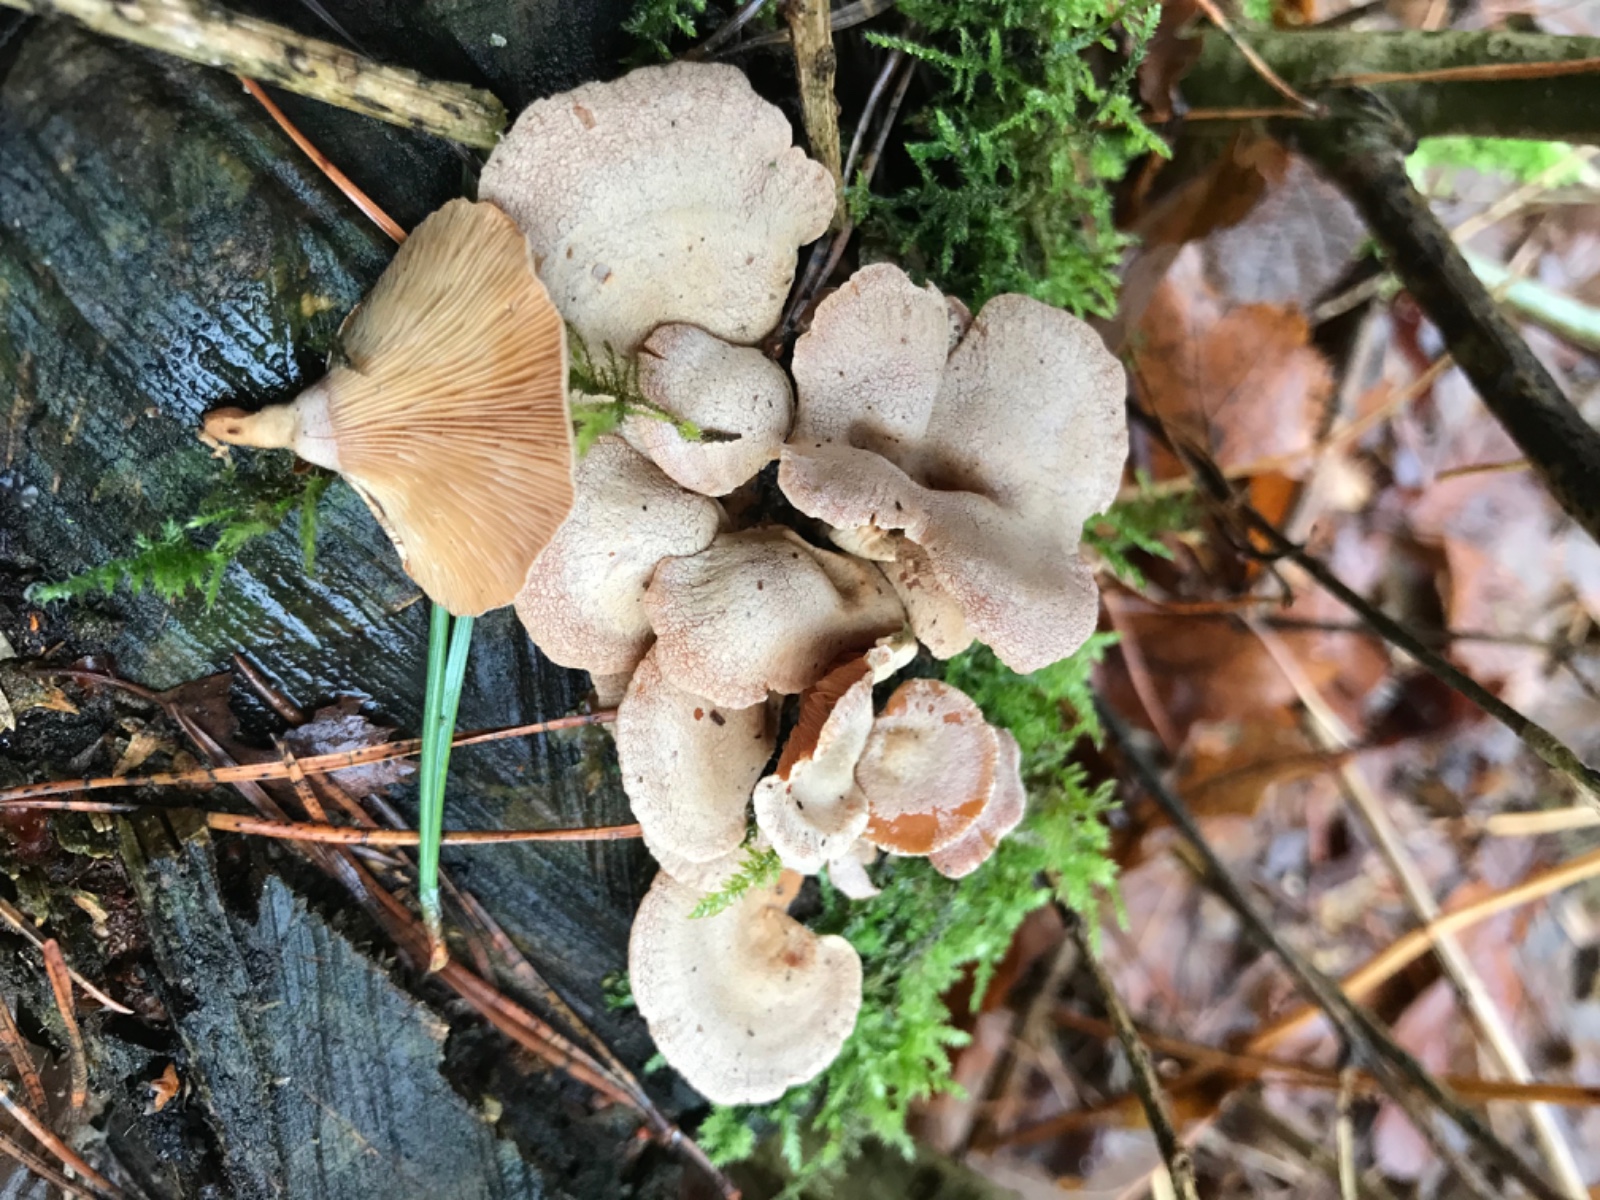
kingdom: Fungi
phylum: Basidiomycota
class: Agaricomycetes
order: Agaricales
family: Mycenaceae
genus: Panellus
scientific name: Panellus stipticus
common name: kliddet epaulethat
